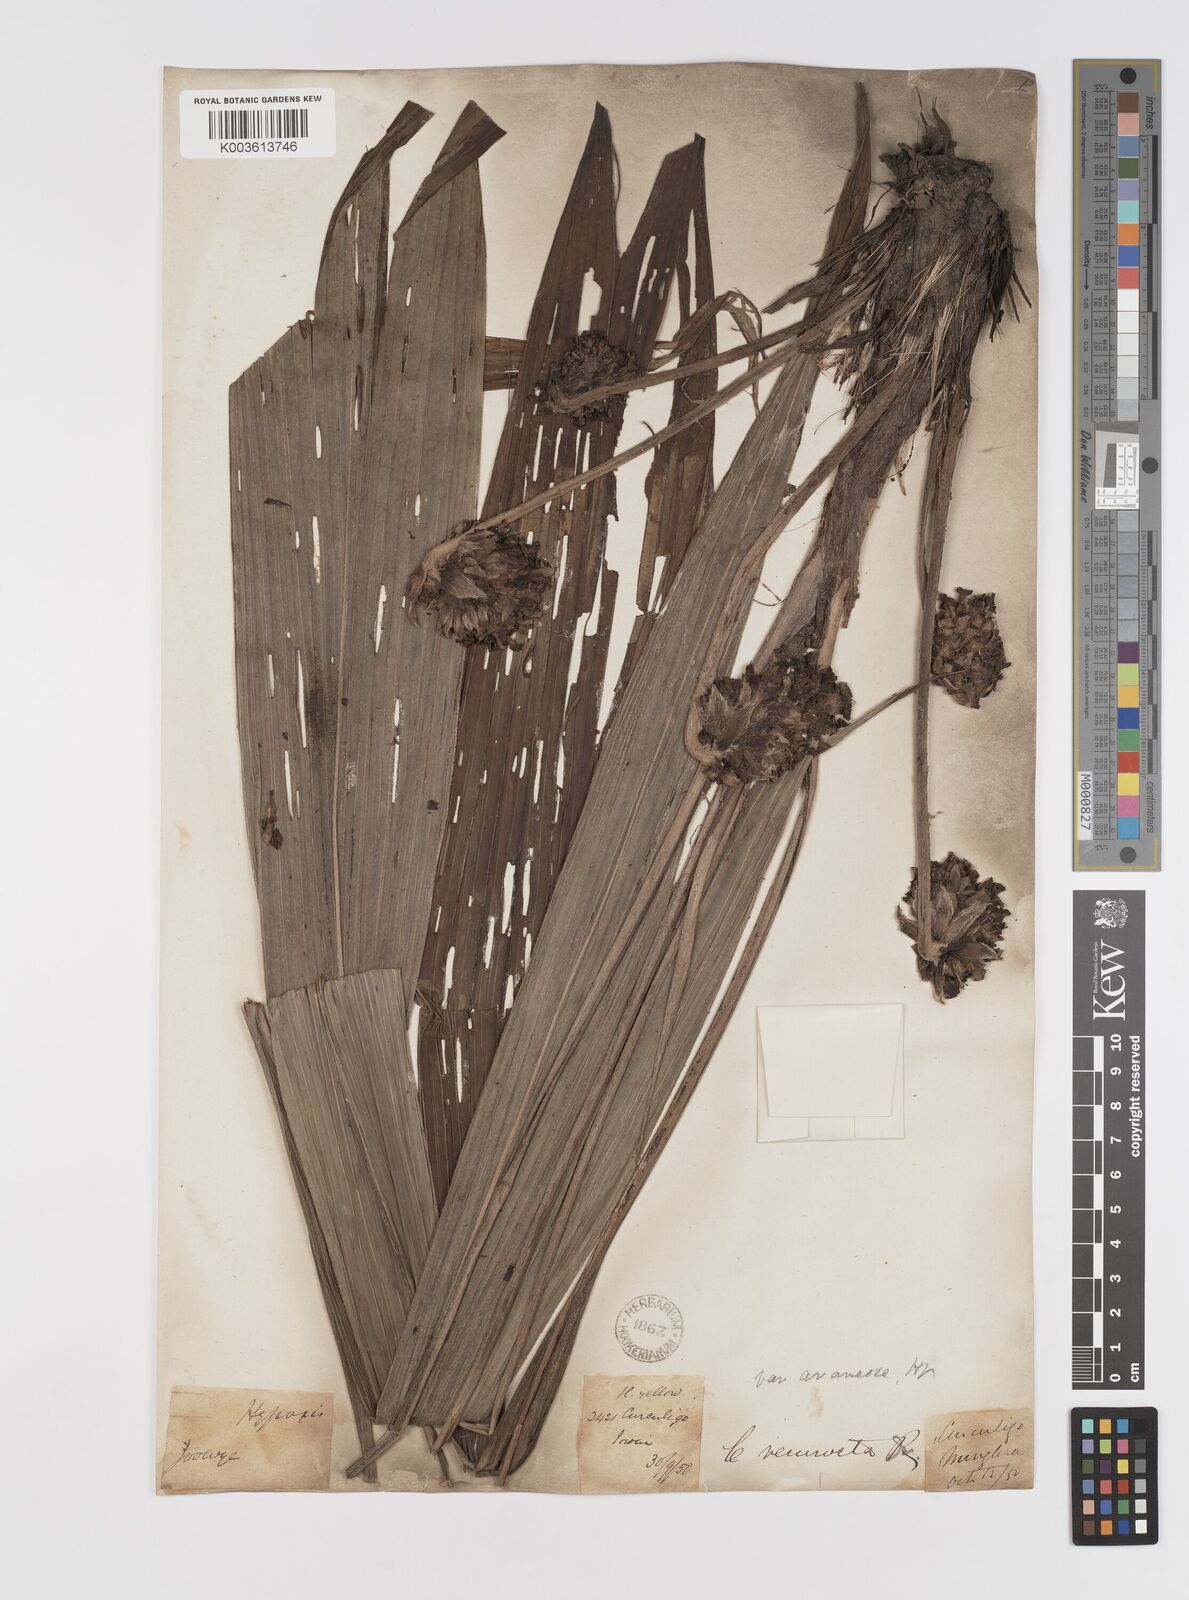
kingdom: Plantae
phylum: Tracheophyta
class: Liliopsida
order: Asparagales
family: Hypoxidaceae
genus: Curculigo
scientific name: Curculigo capitulata
